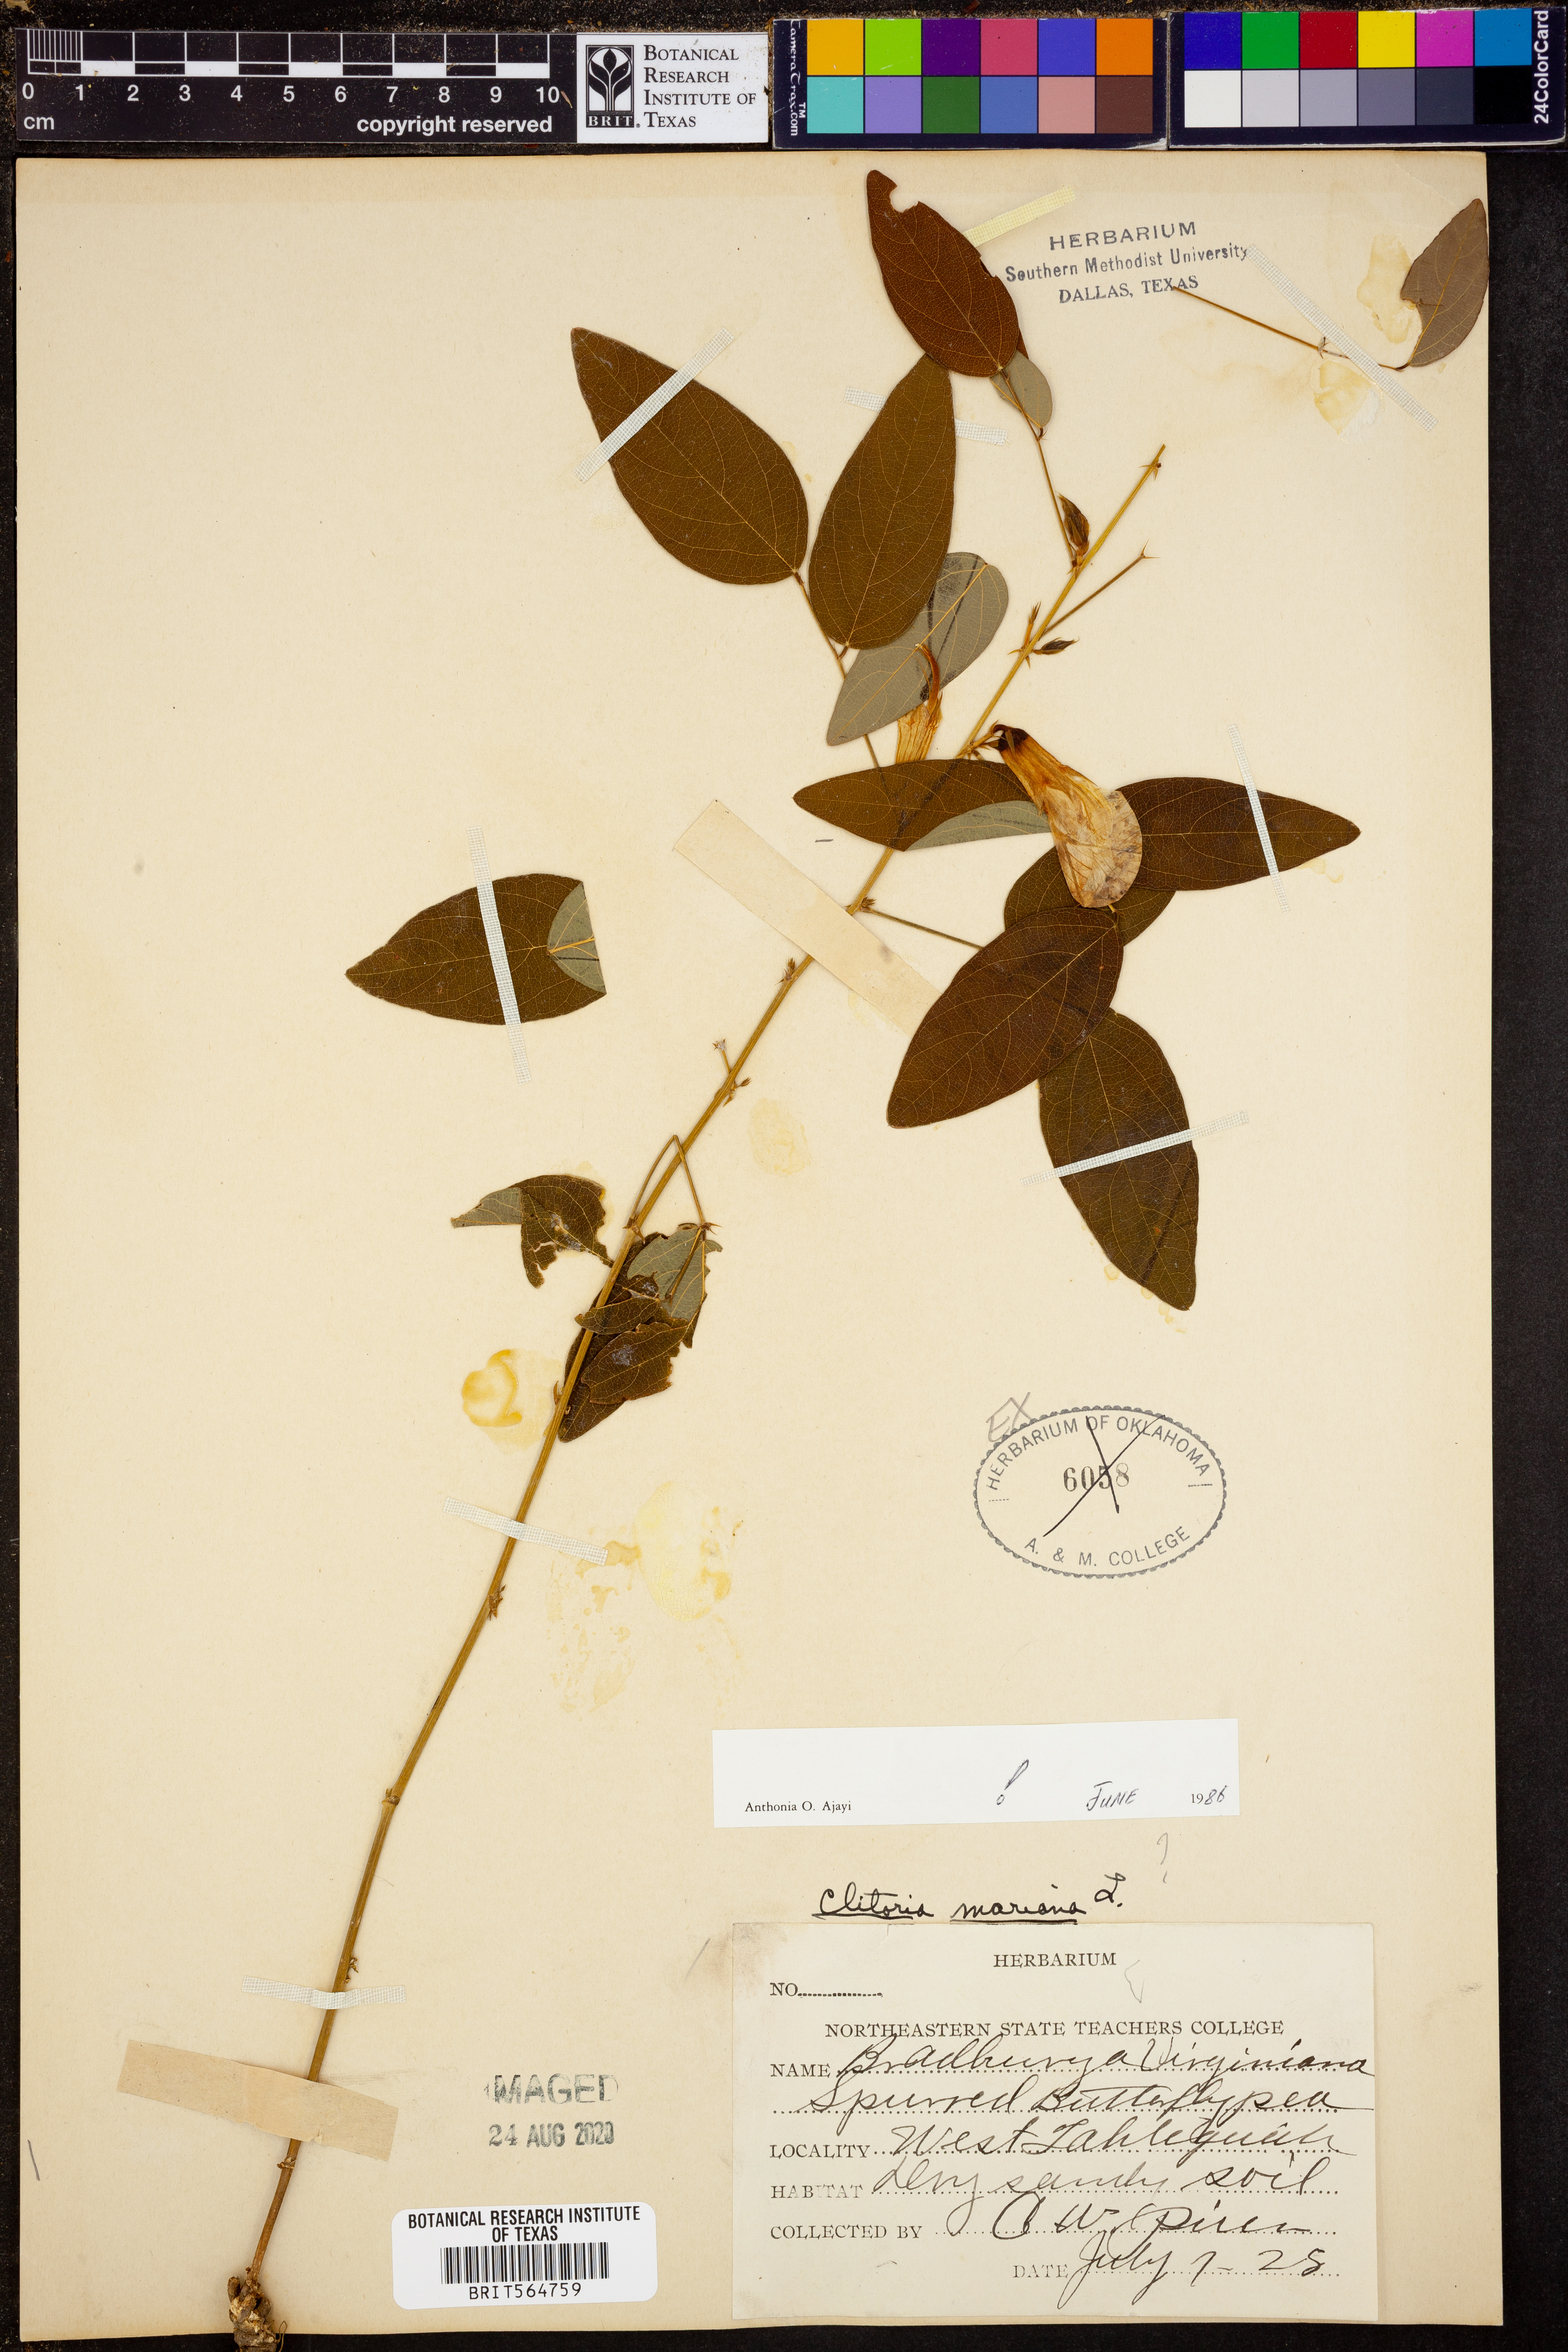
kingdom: Plantae
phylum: Tracheophyta
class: Magnoliopsida
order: Fabales
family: Fabaceae
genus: Clitoria
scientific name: Clitoria mariana
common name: Butterfly-pea
